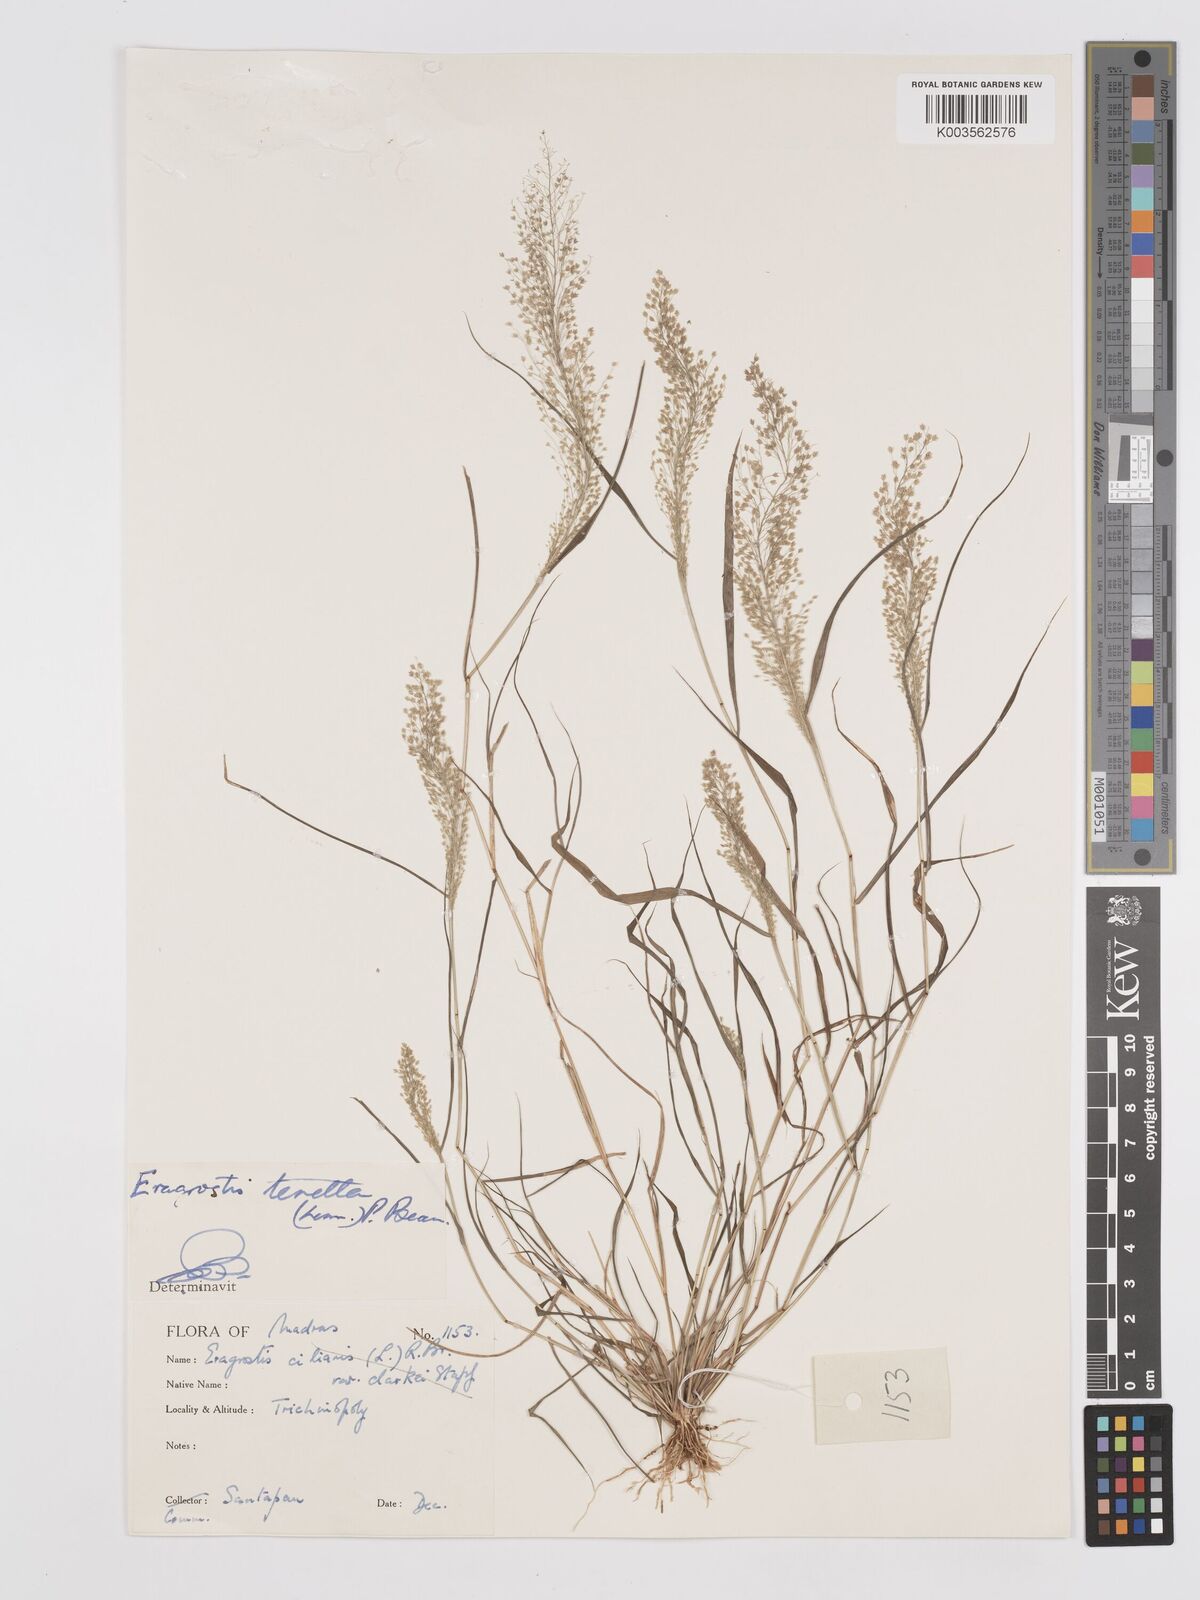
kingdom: Plantae
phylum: Tracheophyta
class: Liliopsida
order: Poales
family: Poaceae
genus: Eragrostis
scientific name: Eragrostis tenella
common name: Japanese lovegrass
